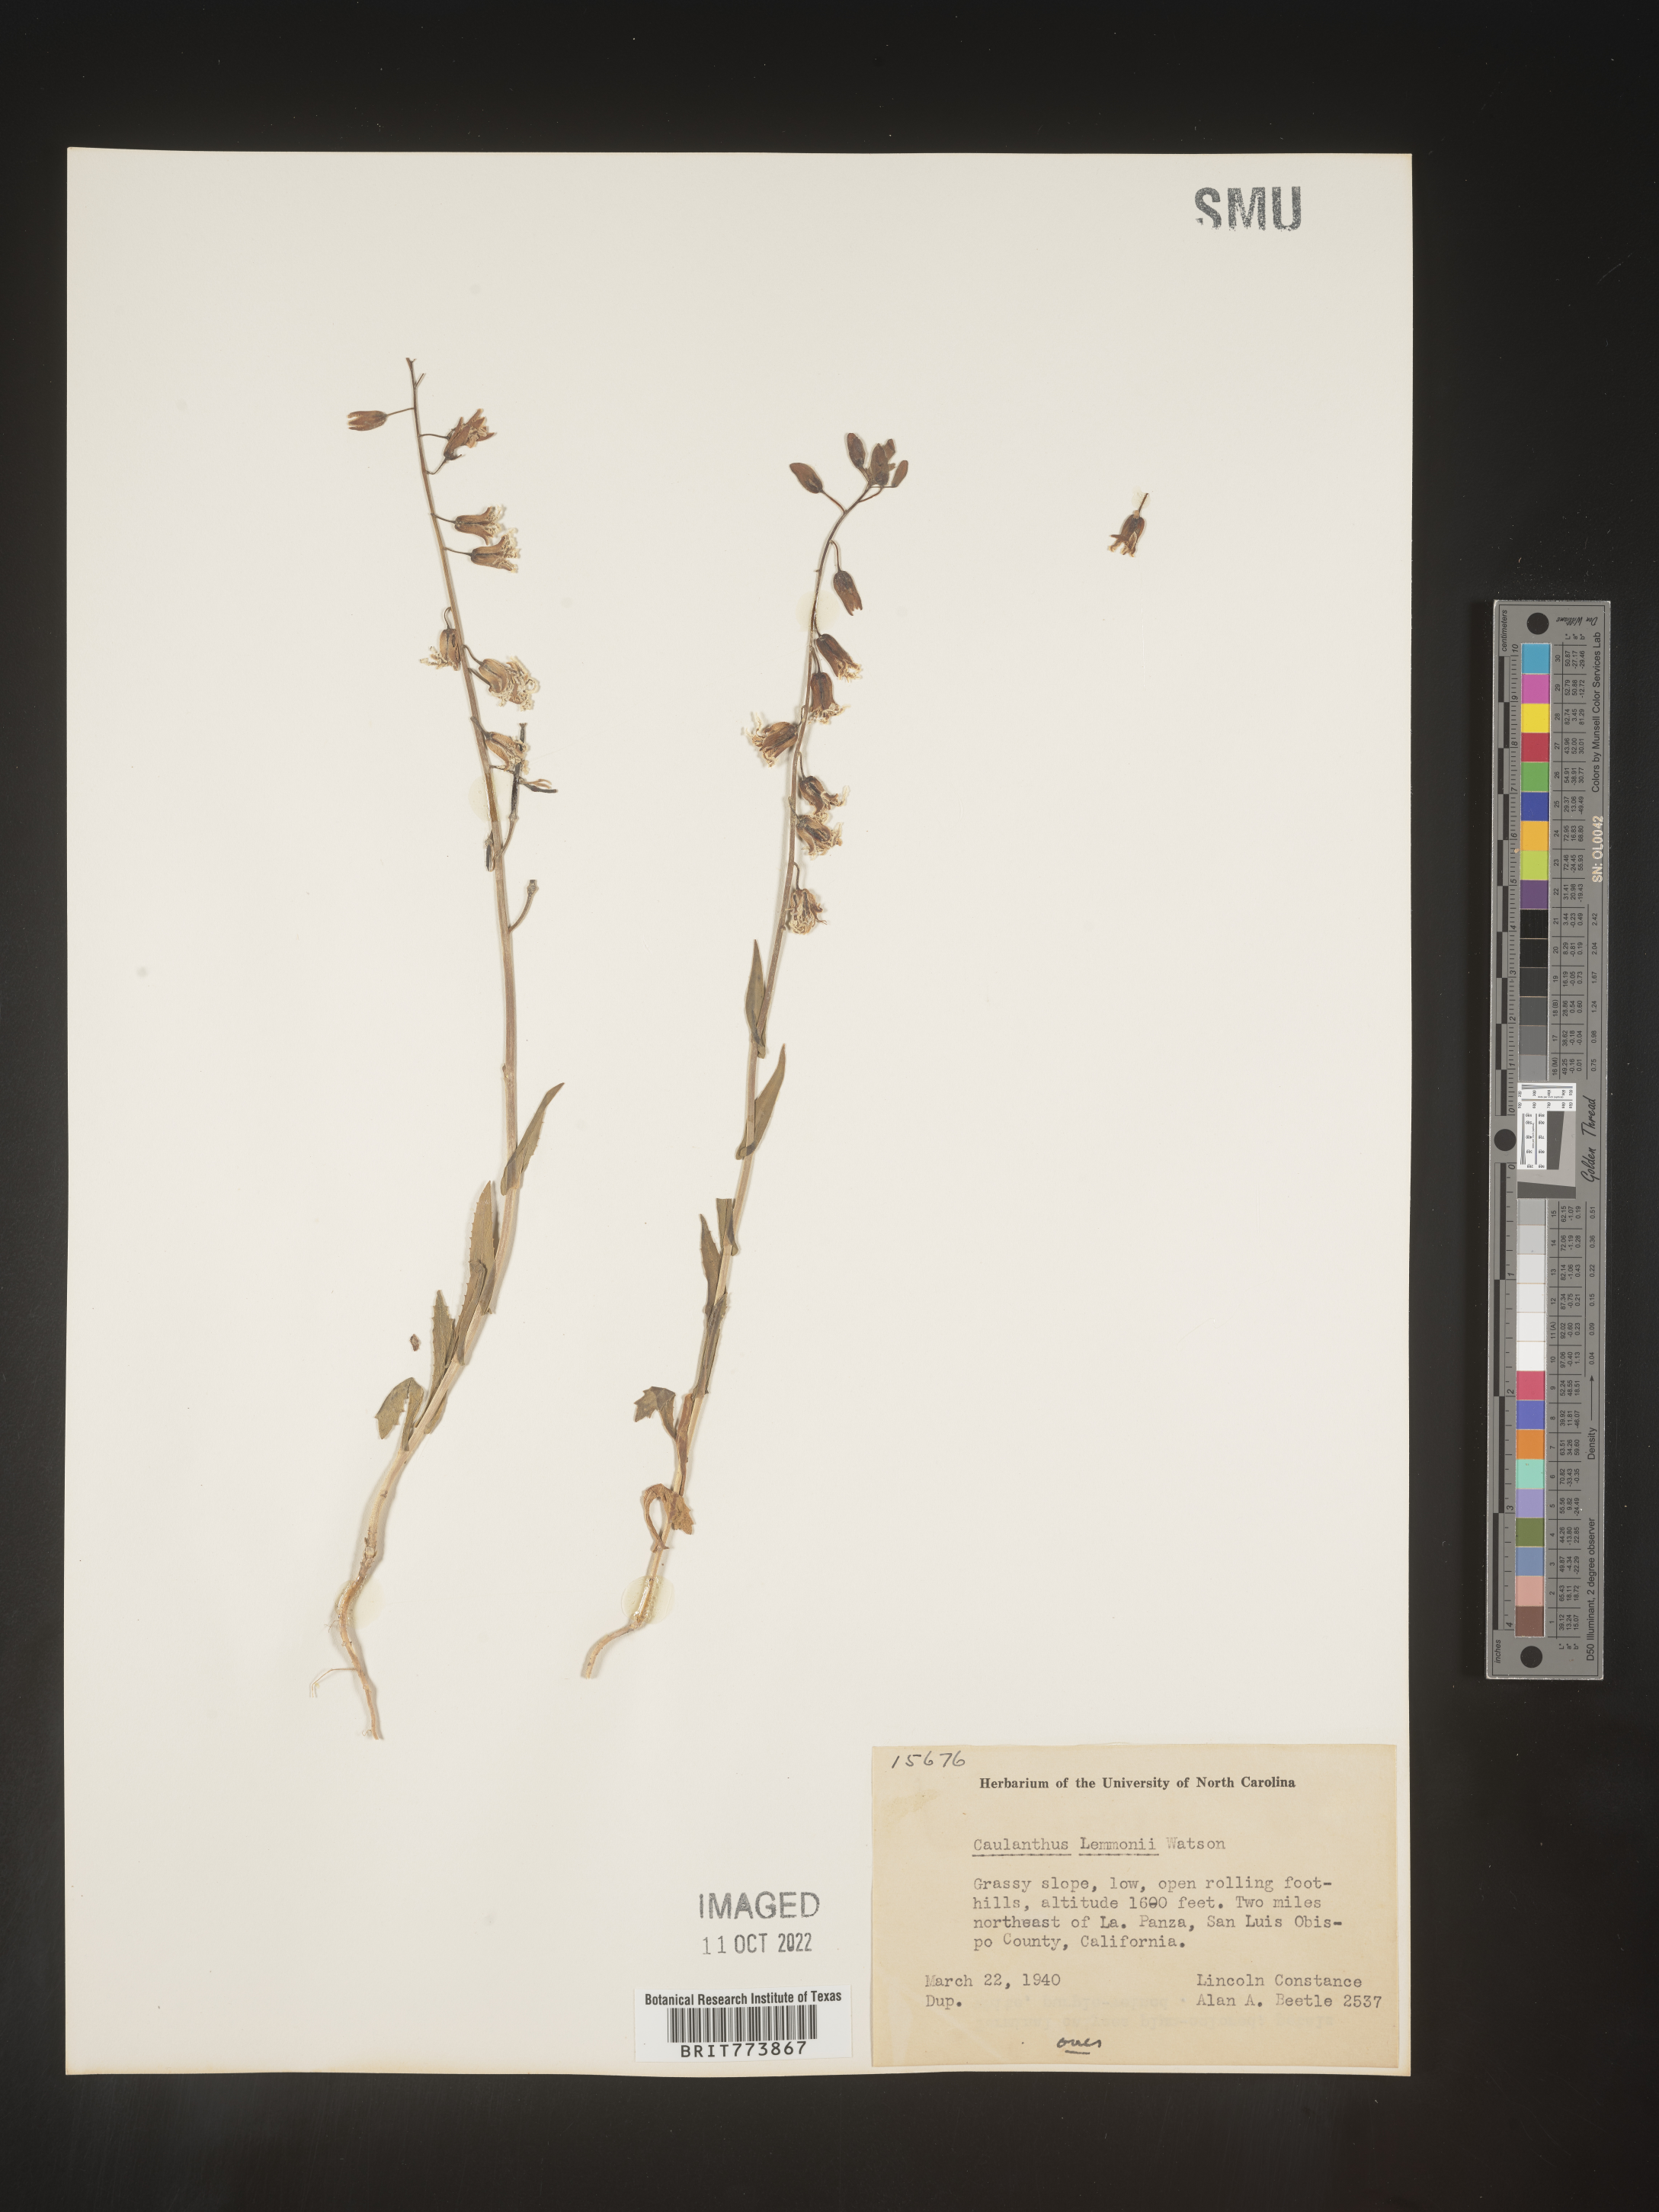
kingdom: Plantae
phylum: Tracheophyta
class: Magnoliopsida
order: Brassicales
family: Brassicaceae
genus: Streptanthus
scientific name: Streptanthus
